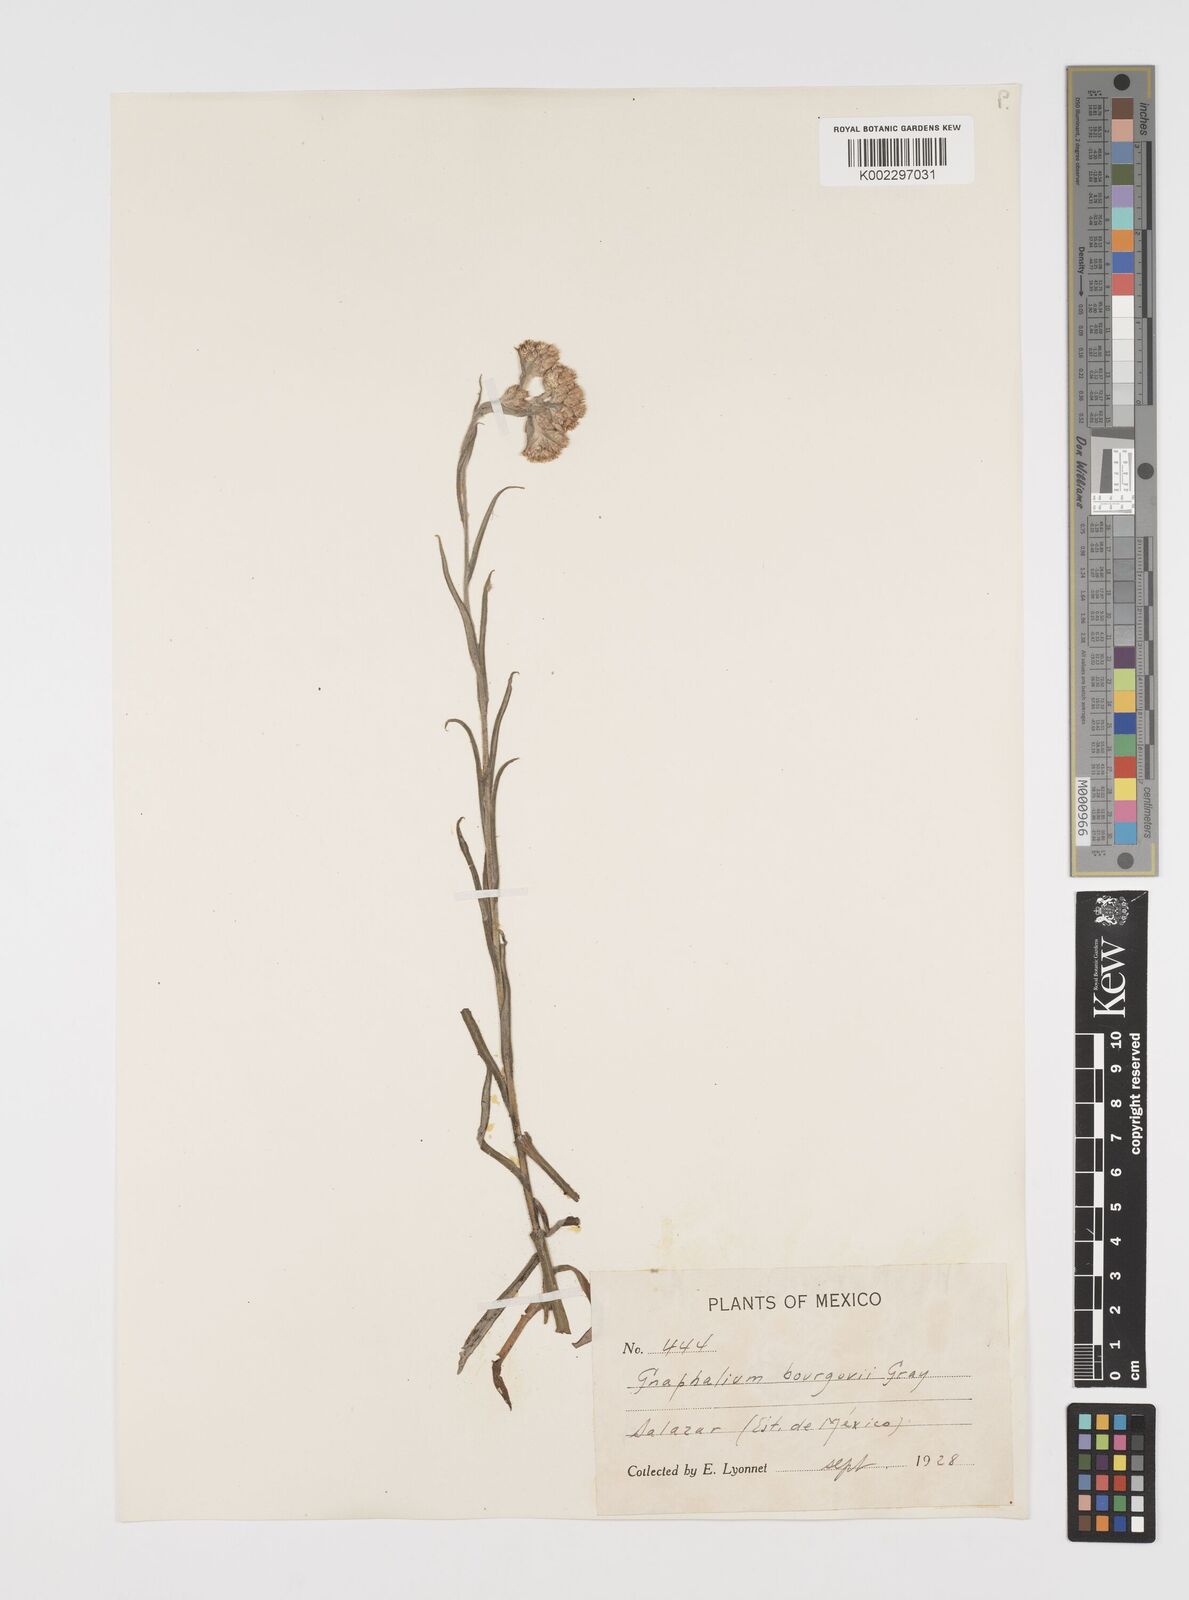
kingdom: Plantae
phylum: Tracheophyta
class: Magnoliopsida
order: Asterales
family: Asteraceae
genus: Pseudognaphalium
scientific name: Pseudognaphalium bourgovii
